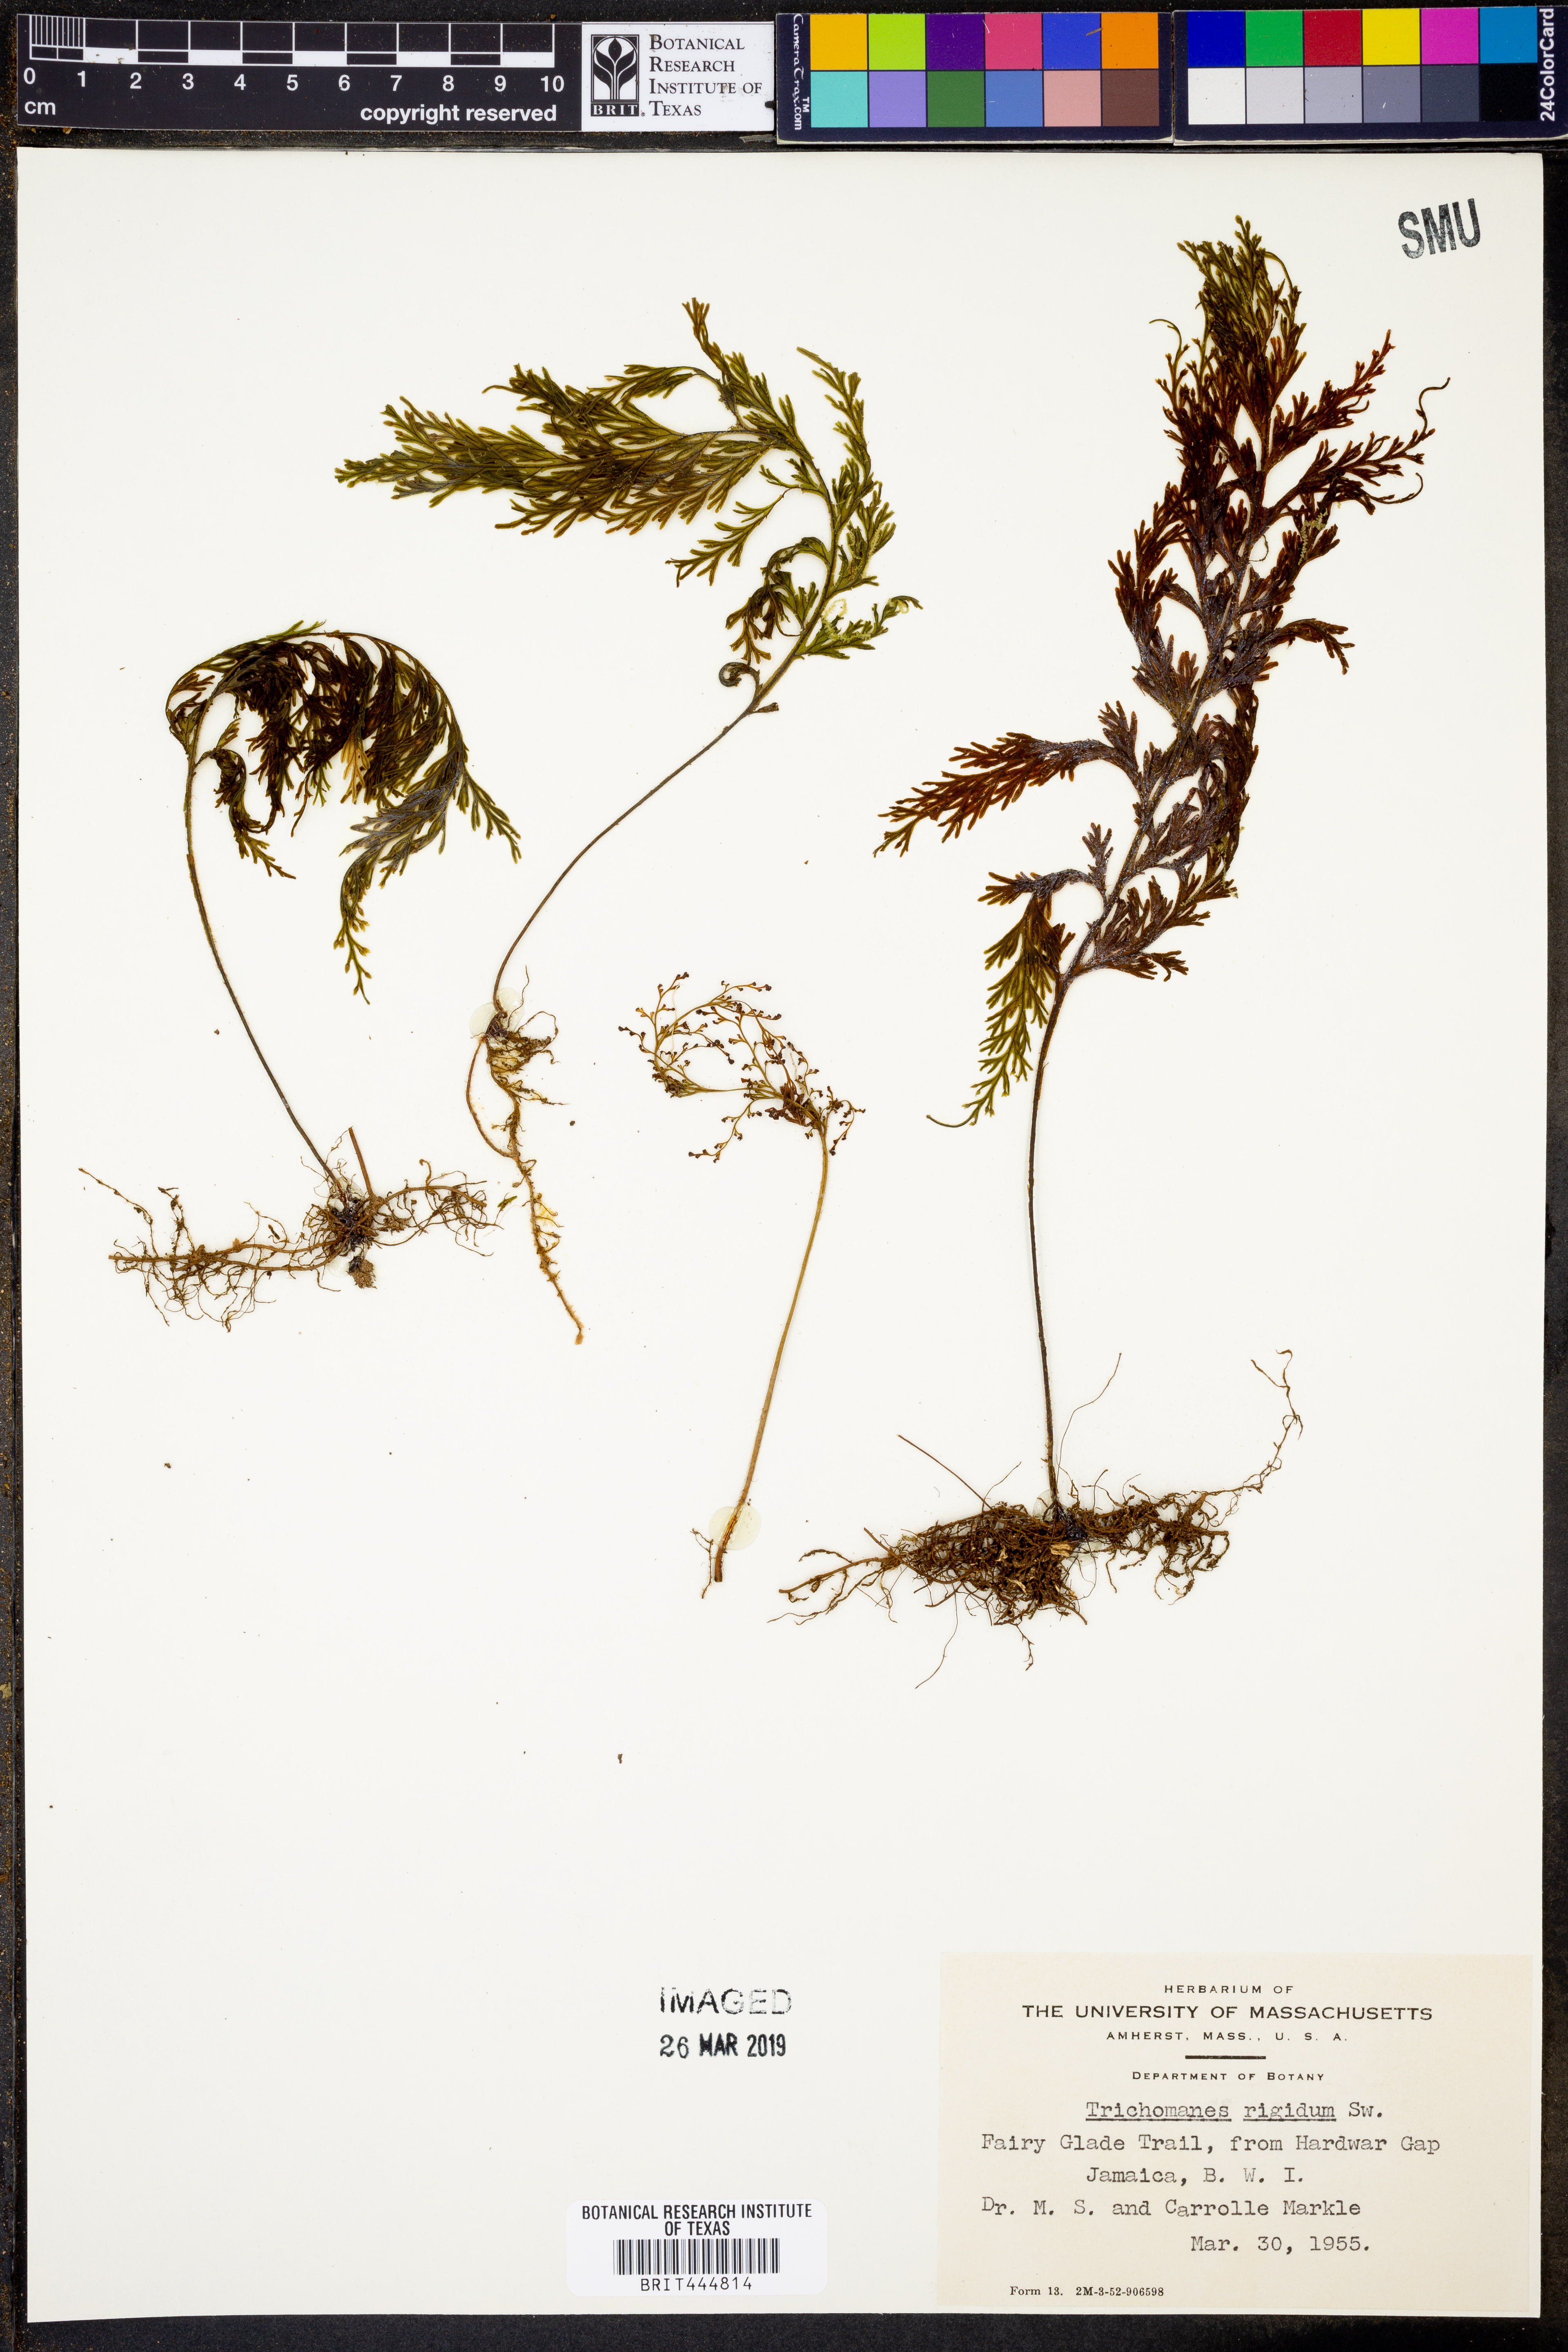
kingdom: Plantae
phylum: Tracheophyta
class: Polypodiopsida
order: Hymenophyllales
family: Hymenophyllaceae
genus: Abrodictyum
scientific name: Abrodictyum rigidum
